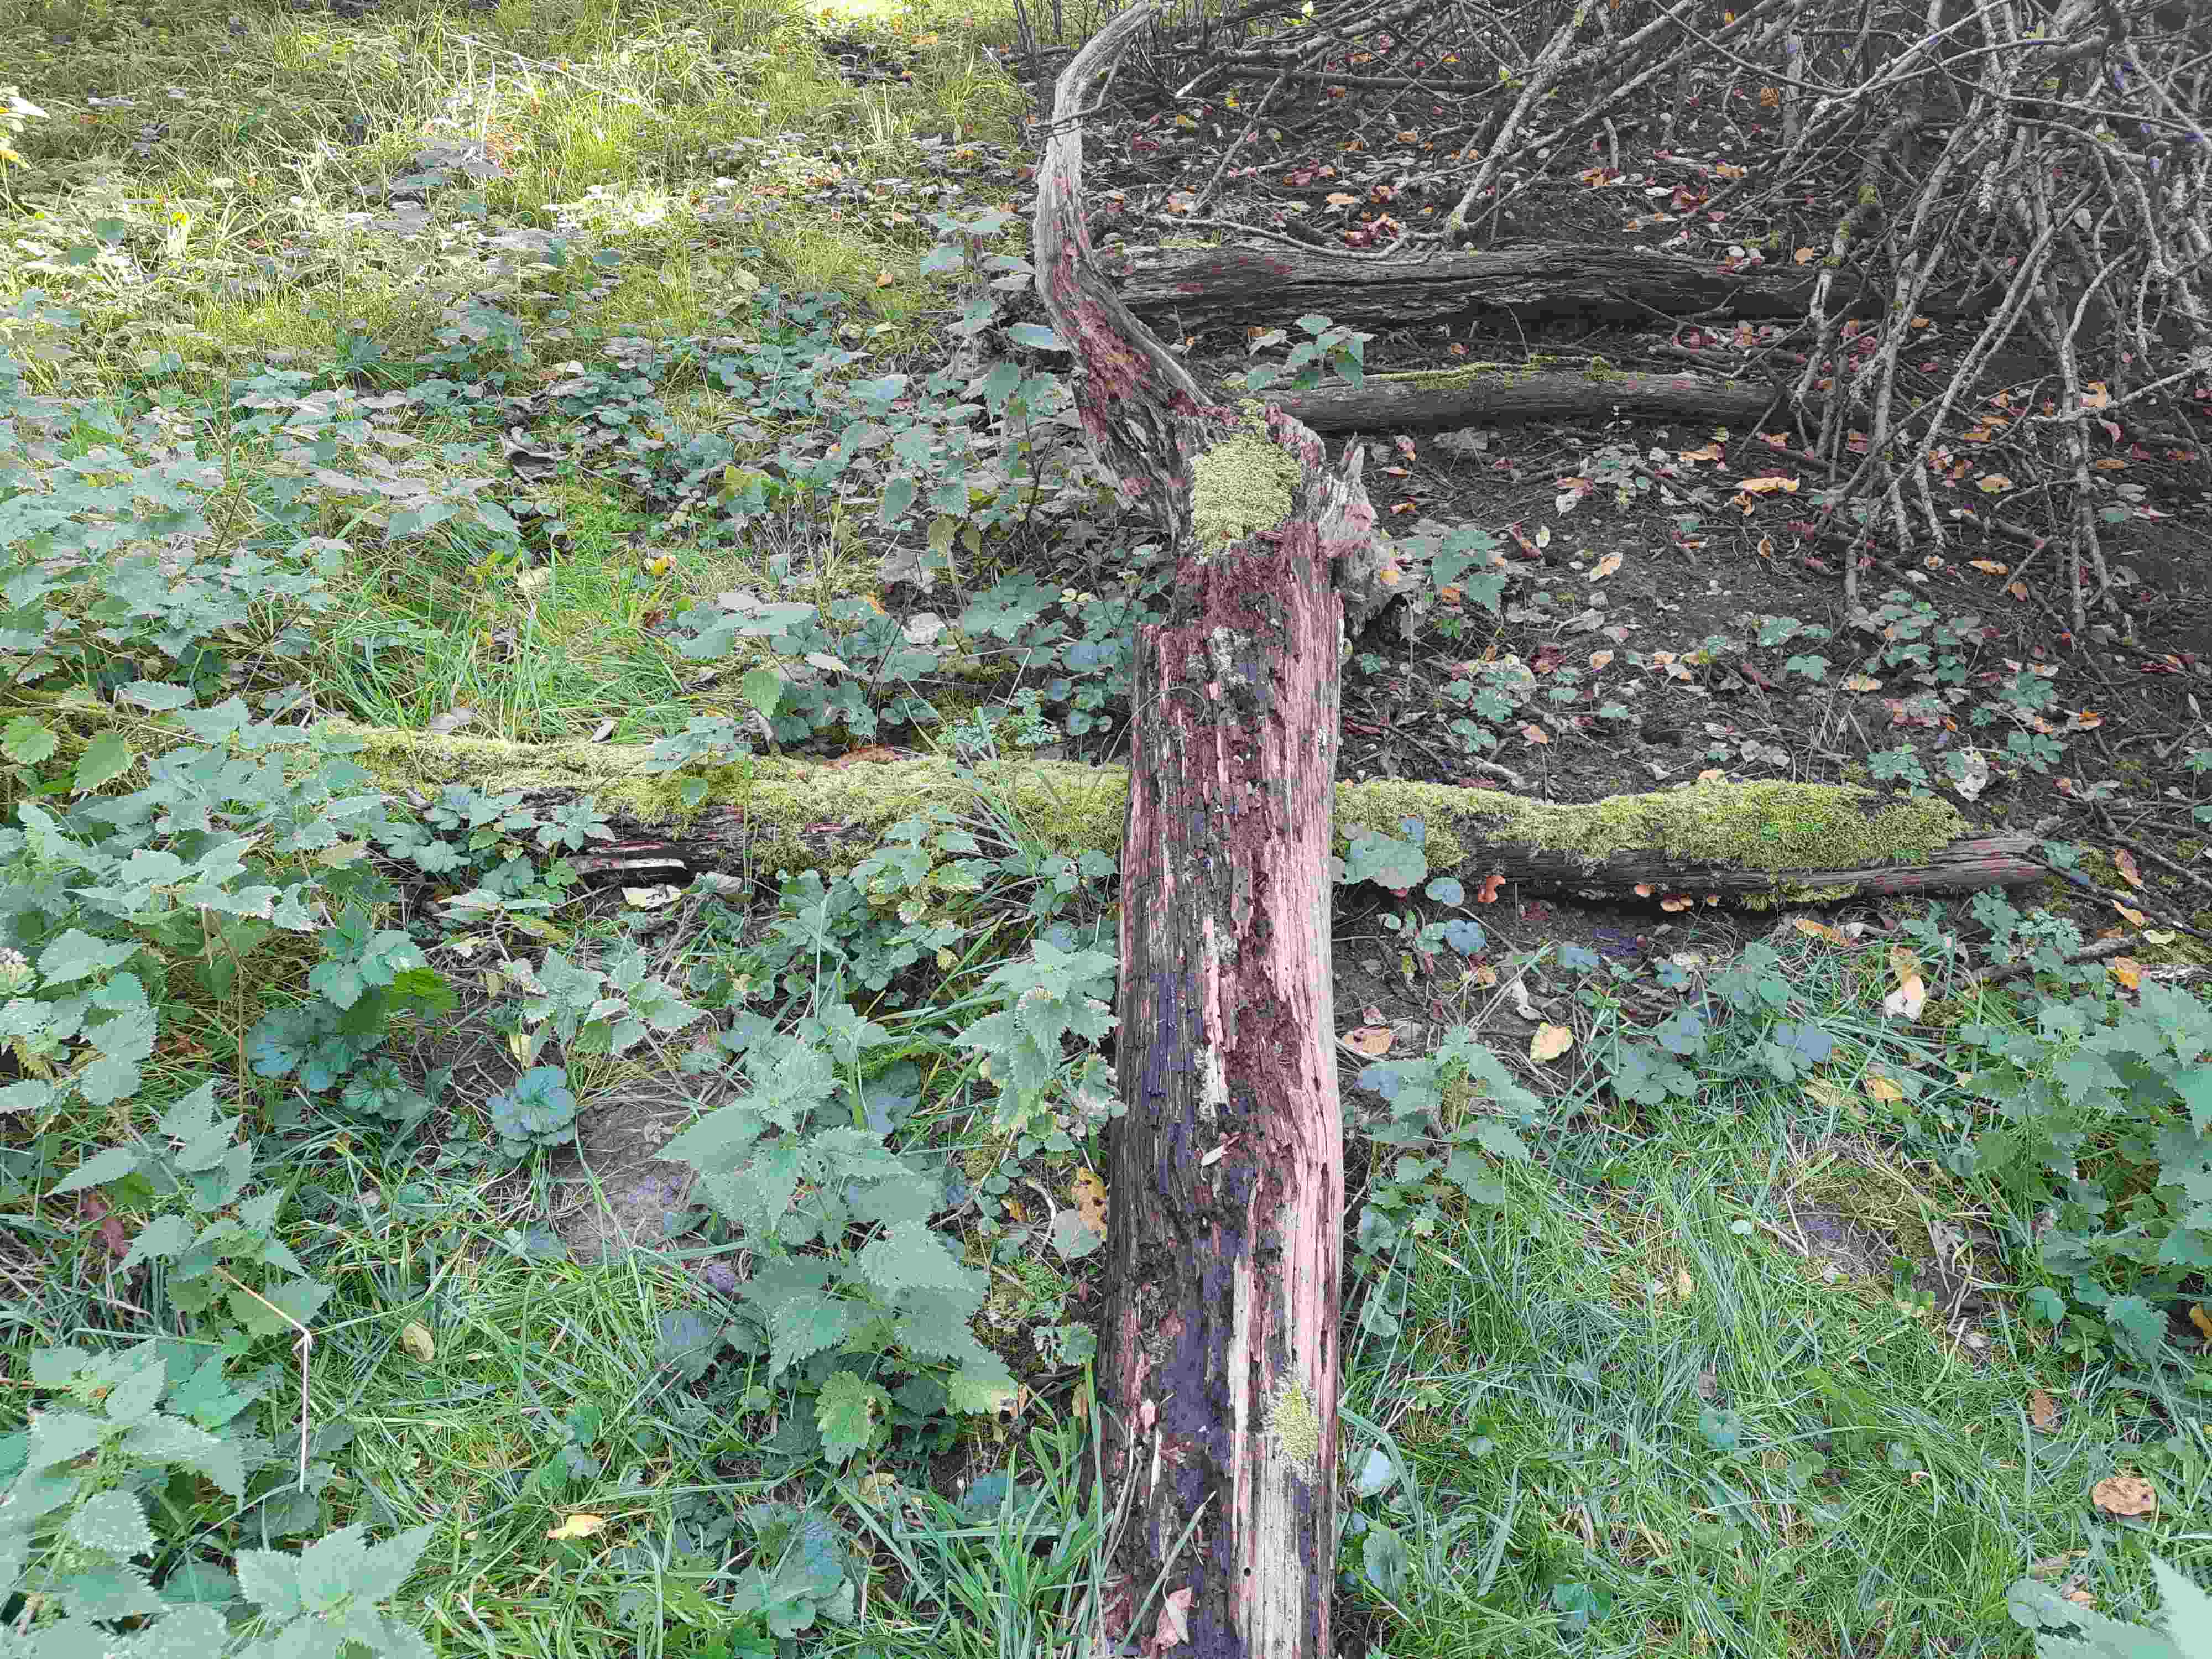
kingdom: Fungi
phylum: Basidiomycota
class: Agaricomycetes
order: Agaricales
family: Hymenogastraceae
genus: Galerina
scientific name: Galerina marginata
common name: randbæltet hjelmhat
